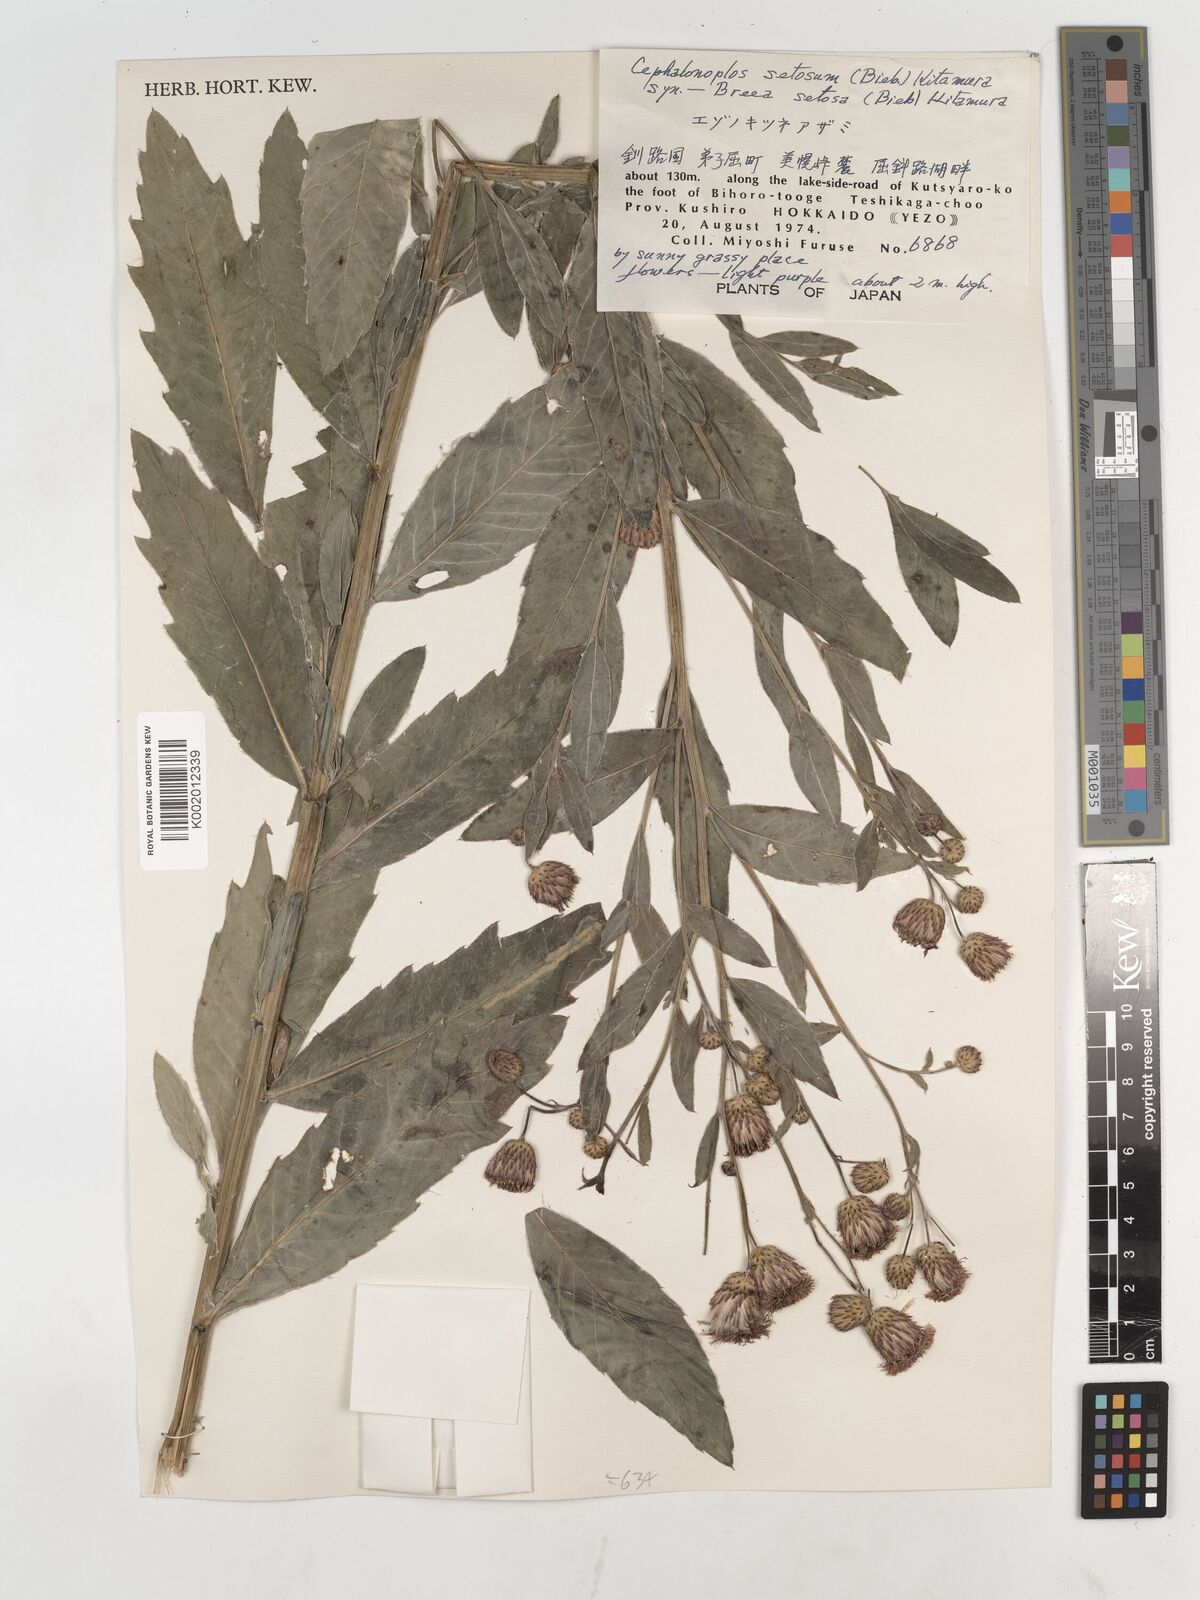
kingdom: Plantae
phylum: Tracheophyta
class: Magnoliopsida
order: Asterales
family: Asteraceae
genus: Cirsium
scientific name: Cirsium arvense
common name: Creeping thistle
